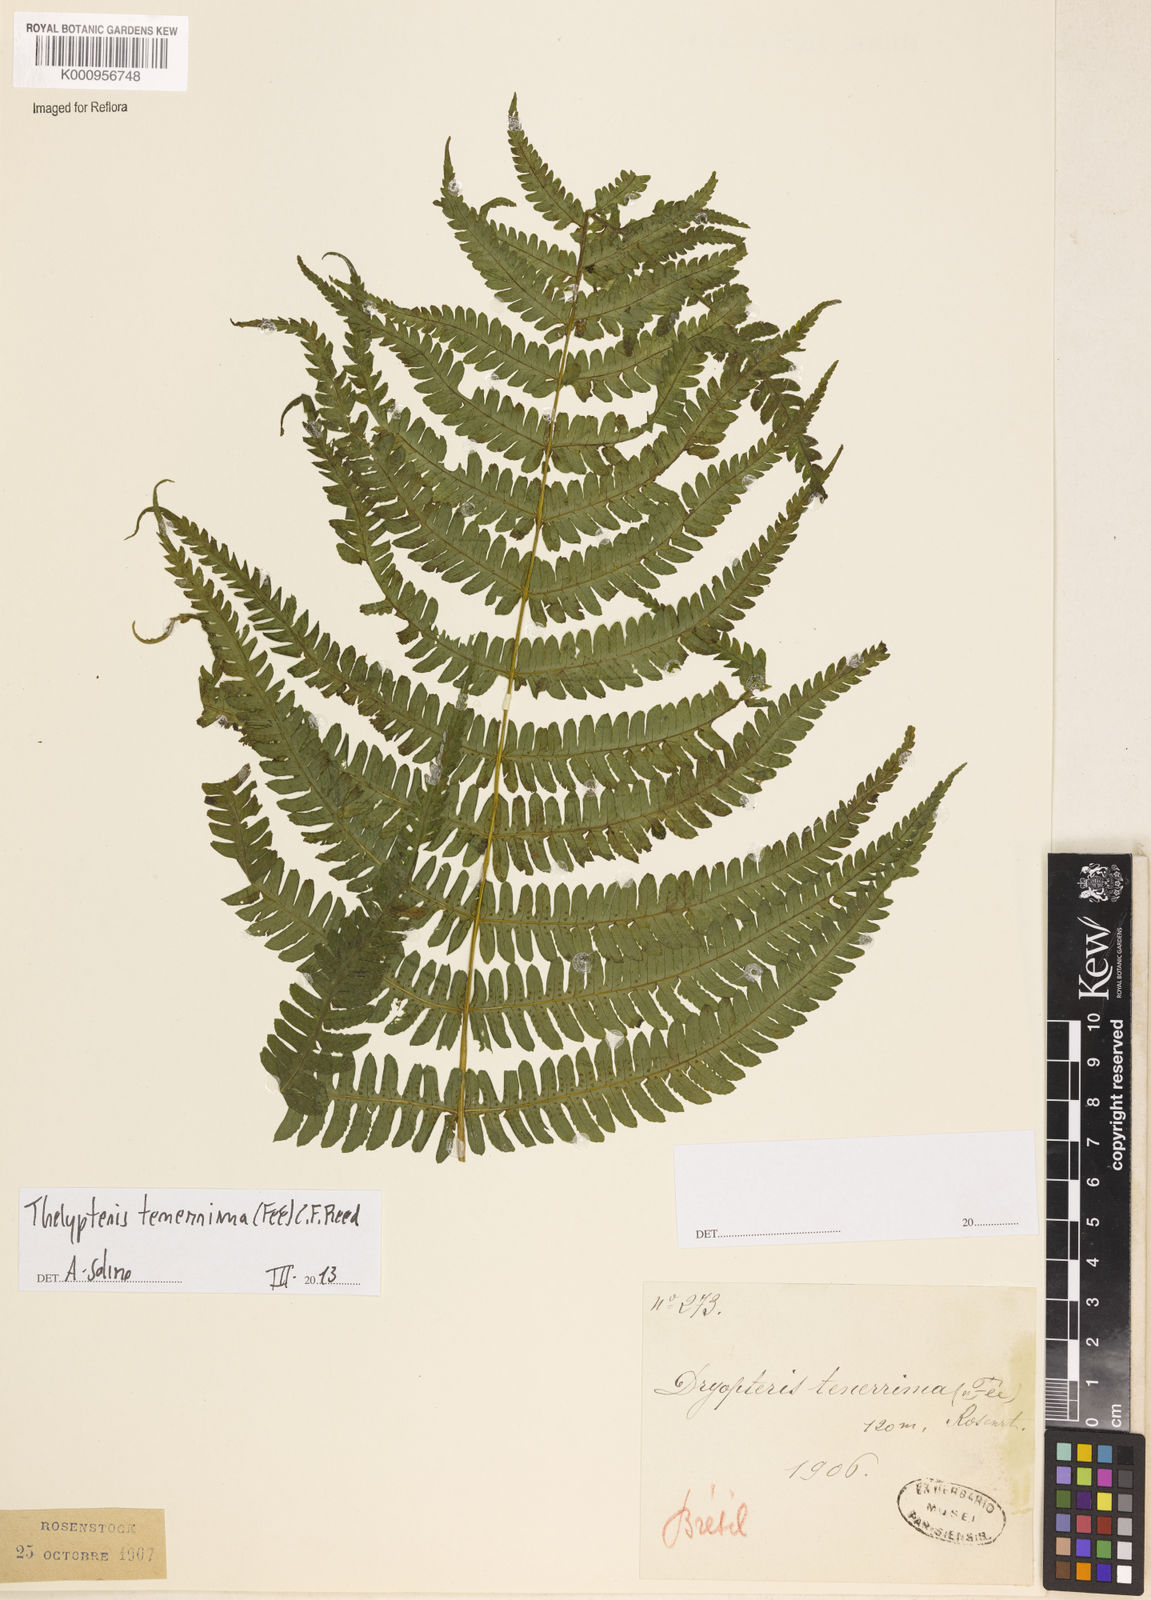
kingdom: Plantae
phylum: Tracheophyta
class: Polypodiopsida
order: Polypodiales
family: Thelypteridaceae
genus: Amauropelta
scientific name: Amauropelta tenerrima
